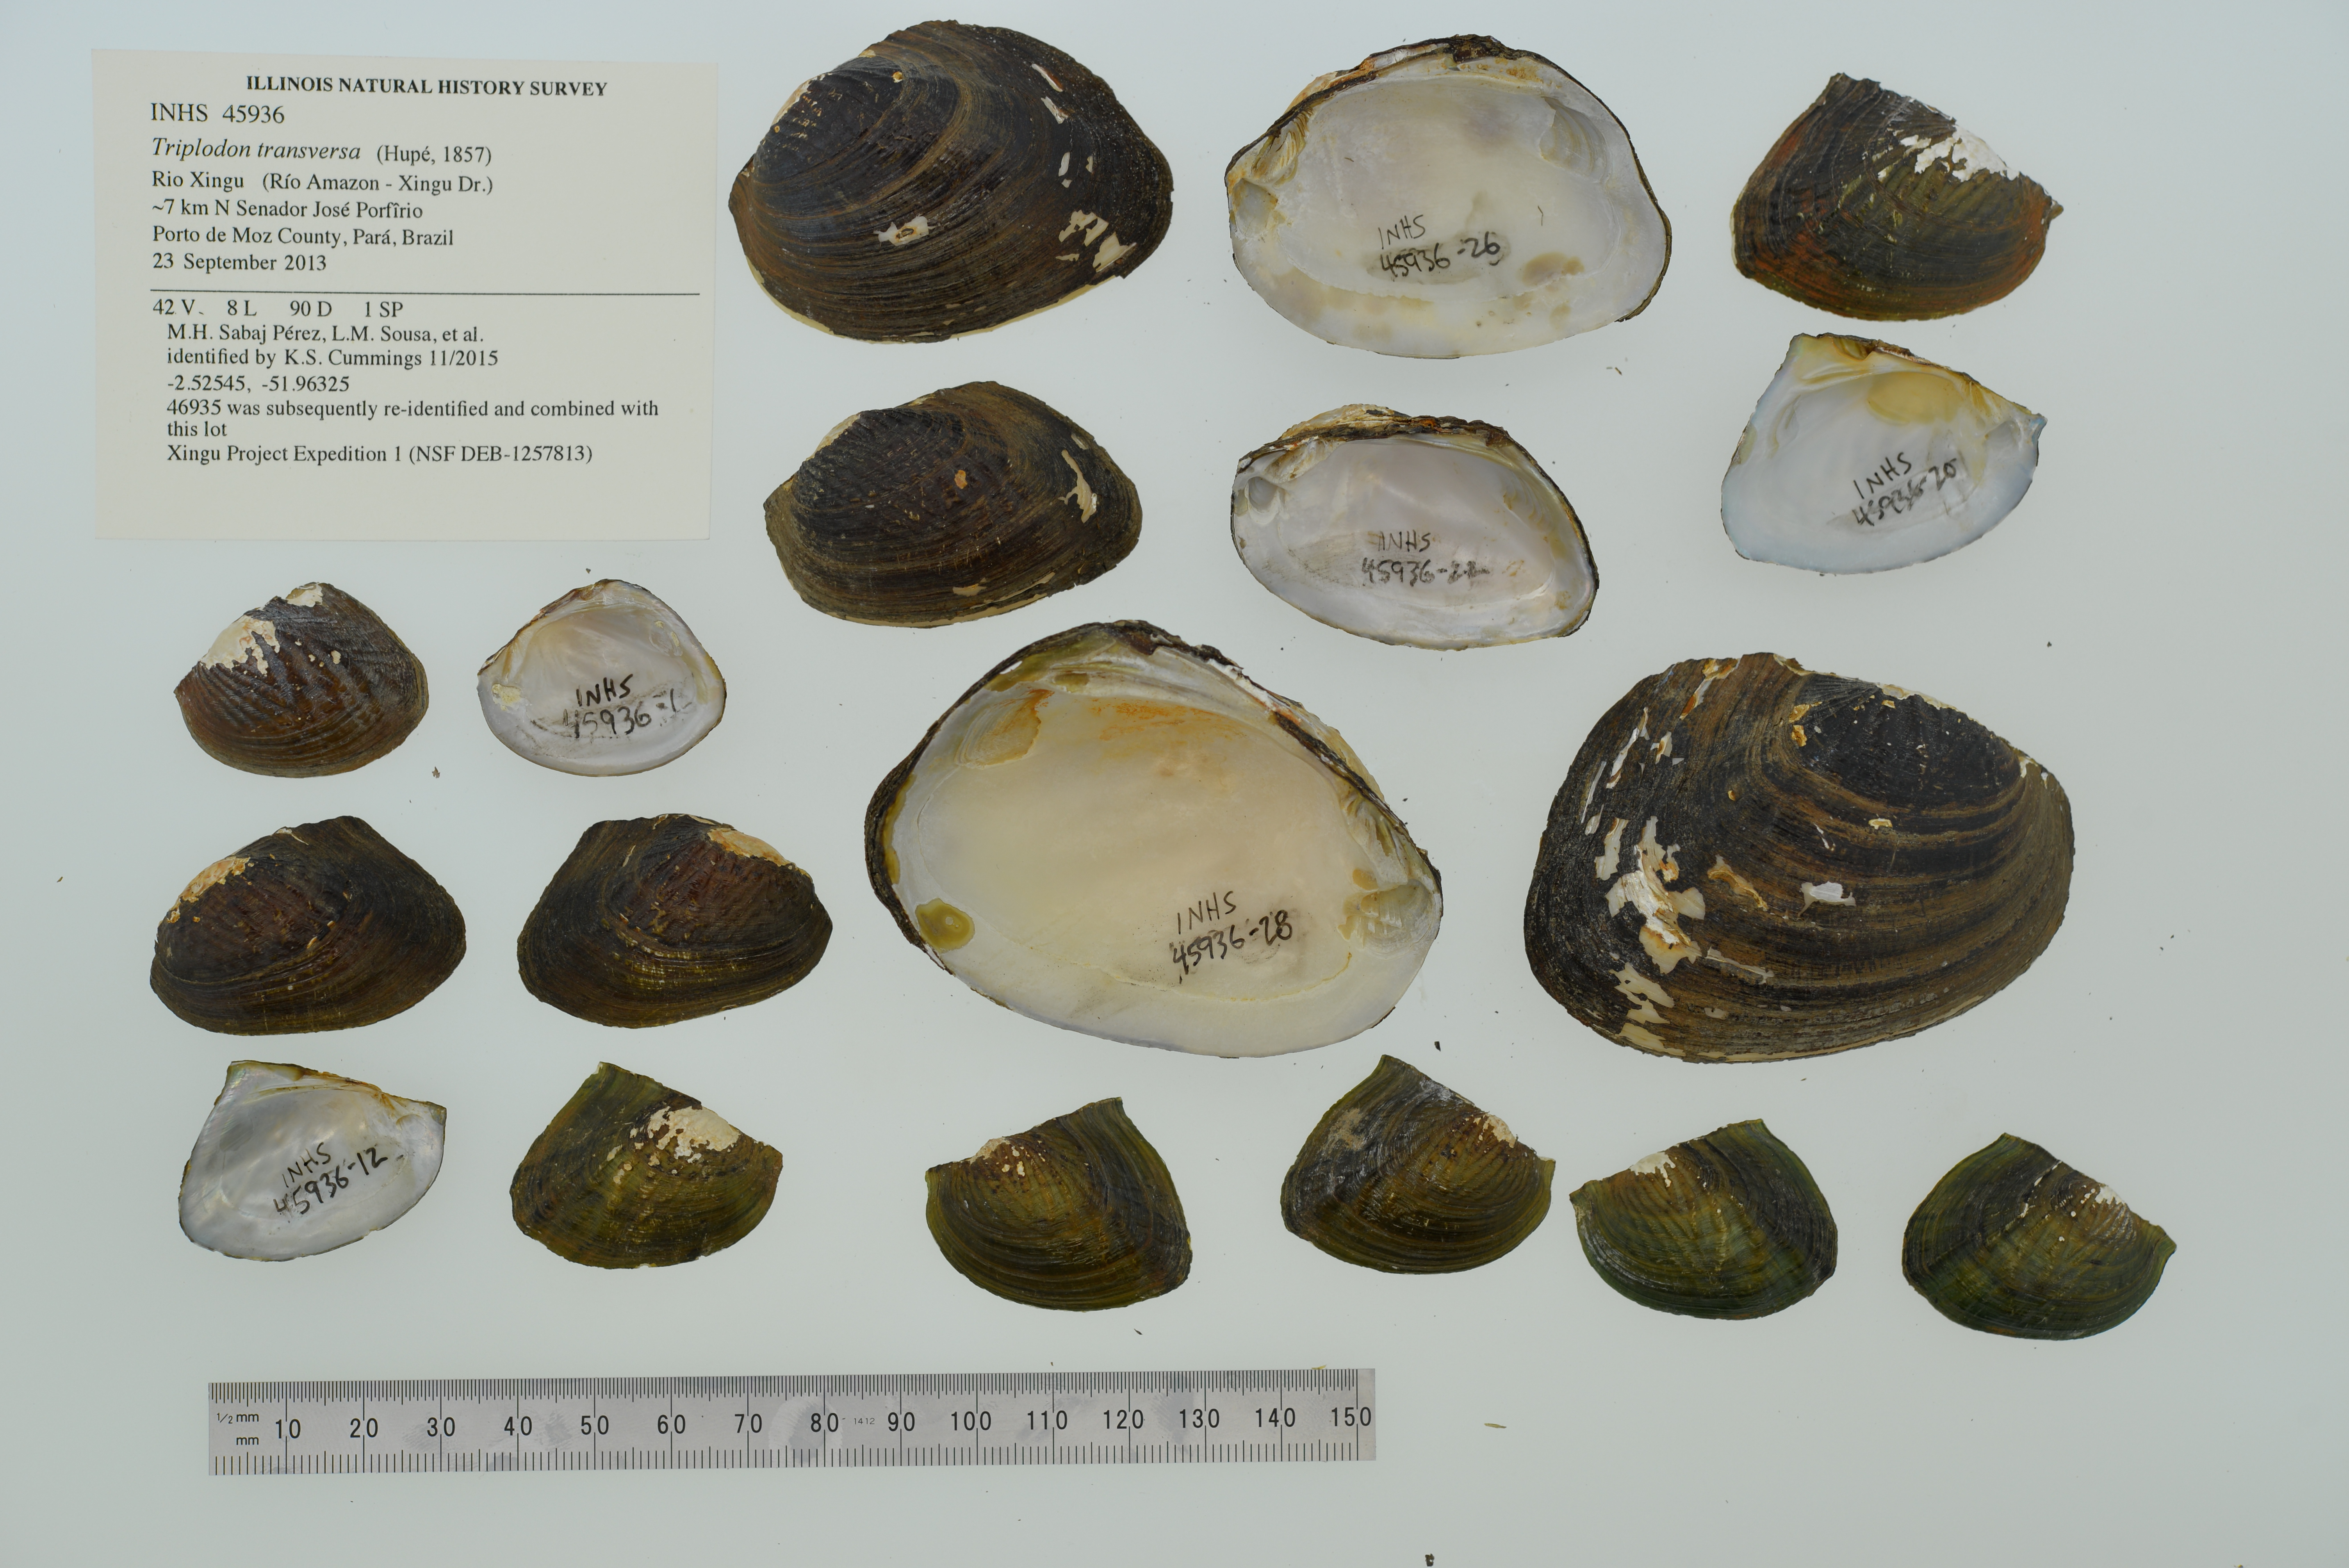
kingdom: Animalia
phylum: Mollusca
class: Bivalvia
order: Unionida
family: Hyriidae
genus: Triplodon
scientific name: Triplodon
